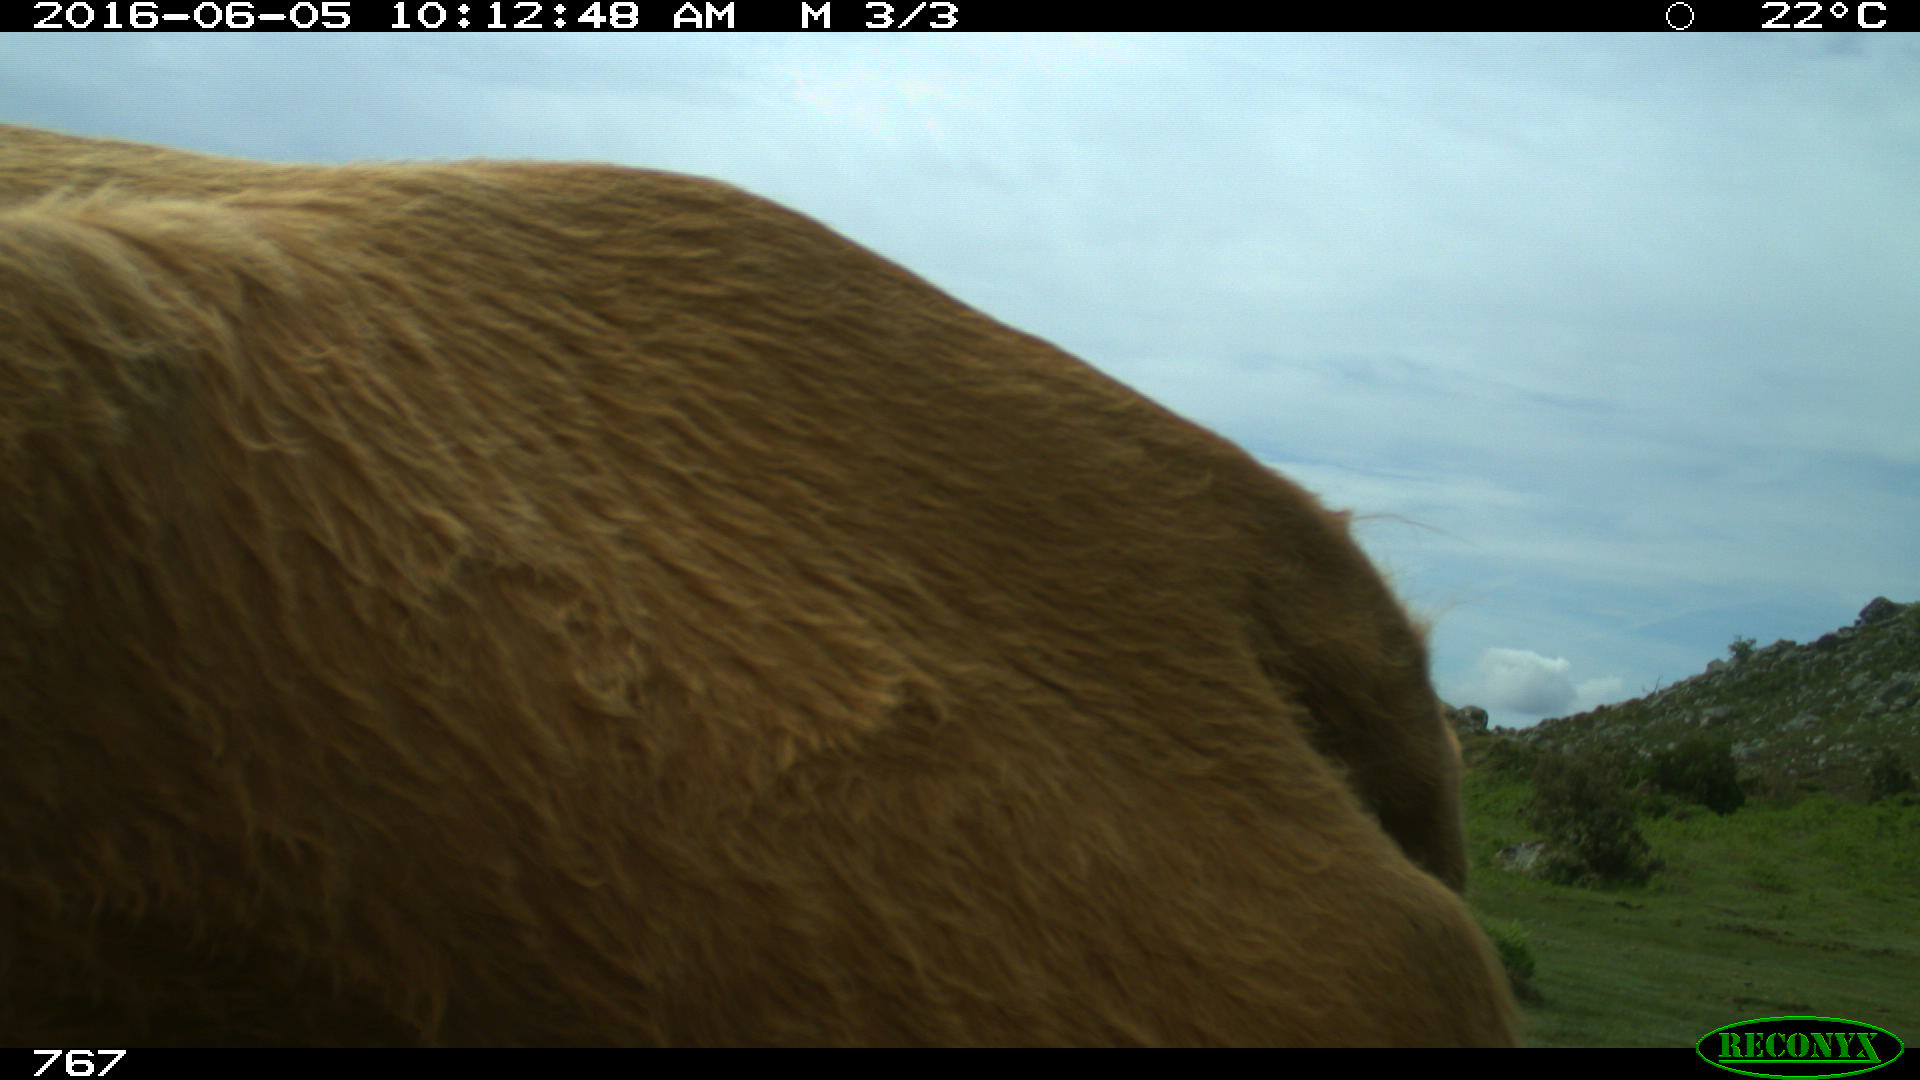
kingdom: Animalia
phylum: Chordata
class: Mammalia
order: Artiodactyla
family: Bovidae
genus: Bos
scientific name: Bos taurus
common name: Domesticated cattle
